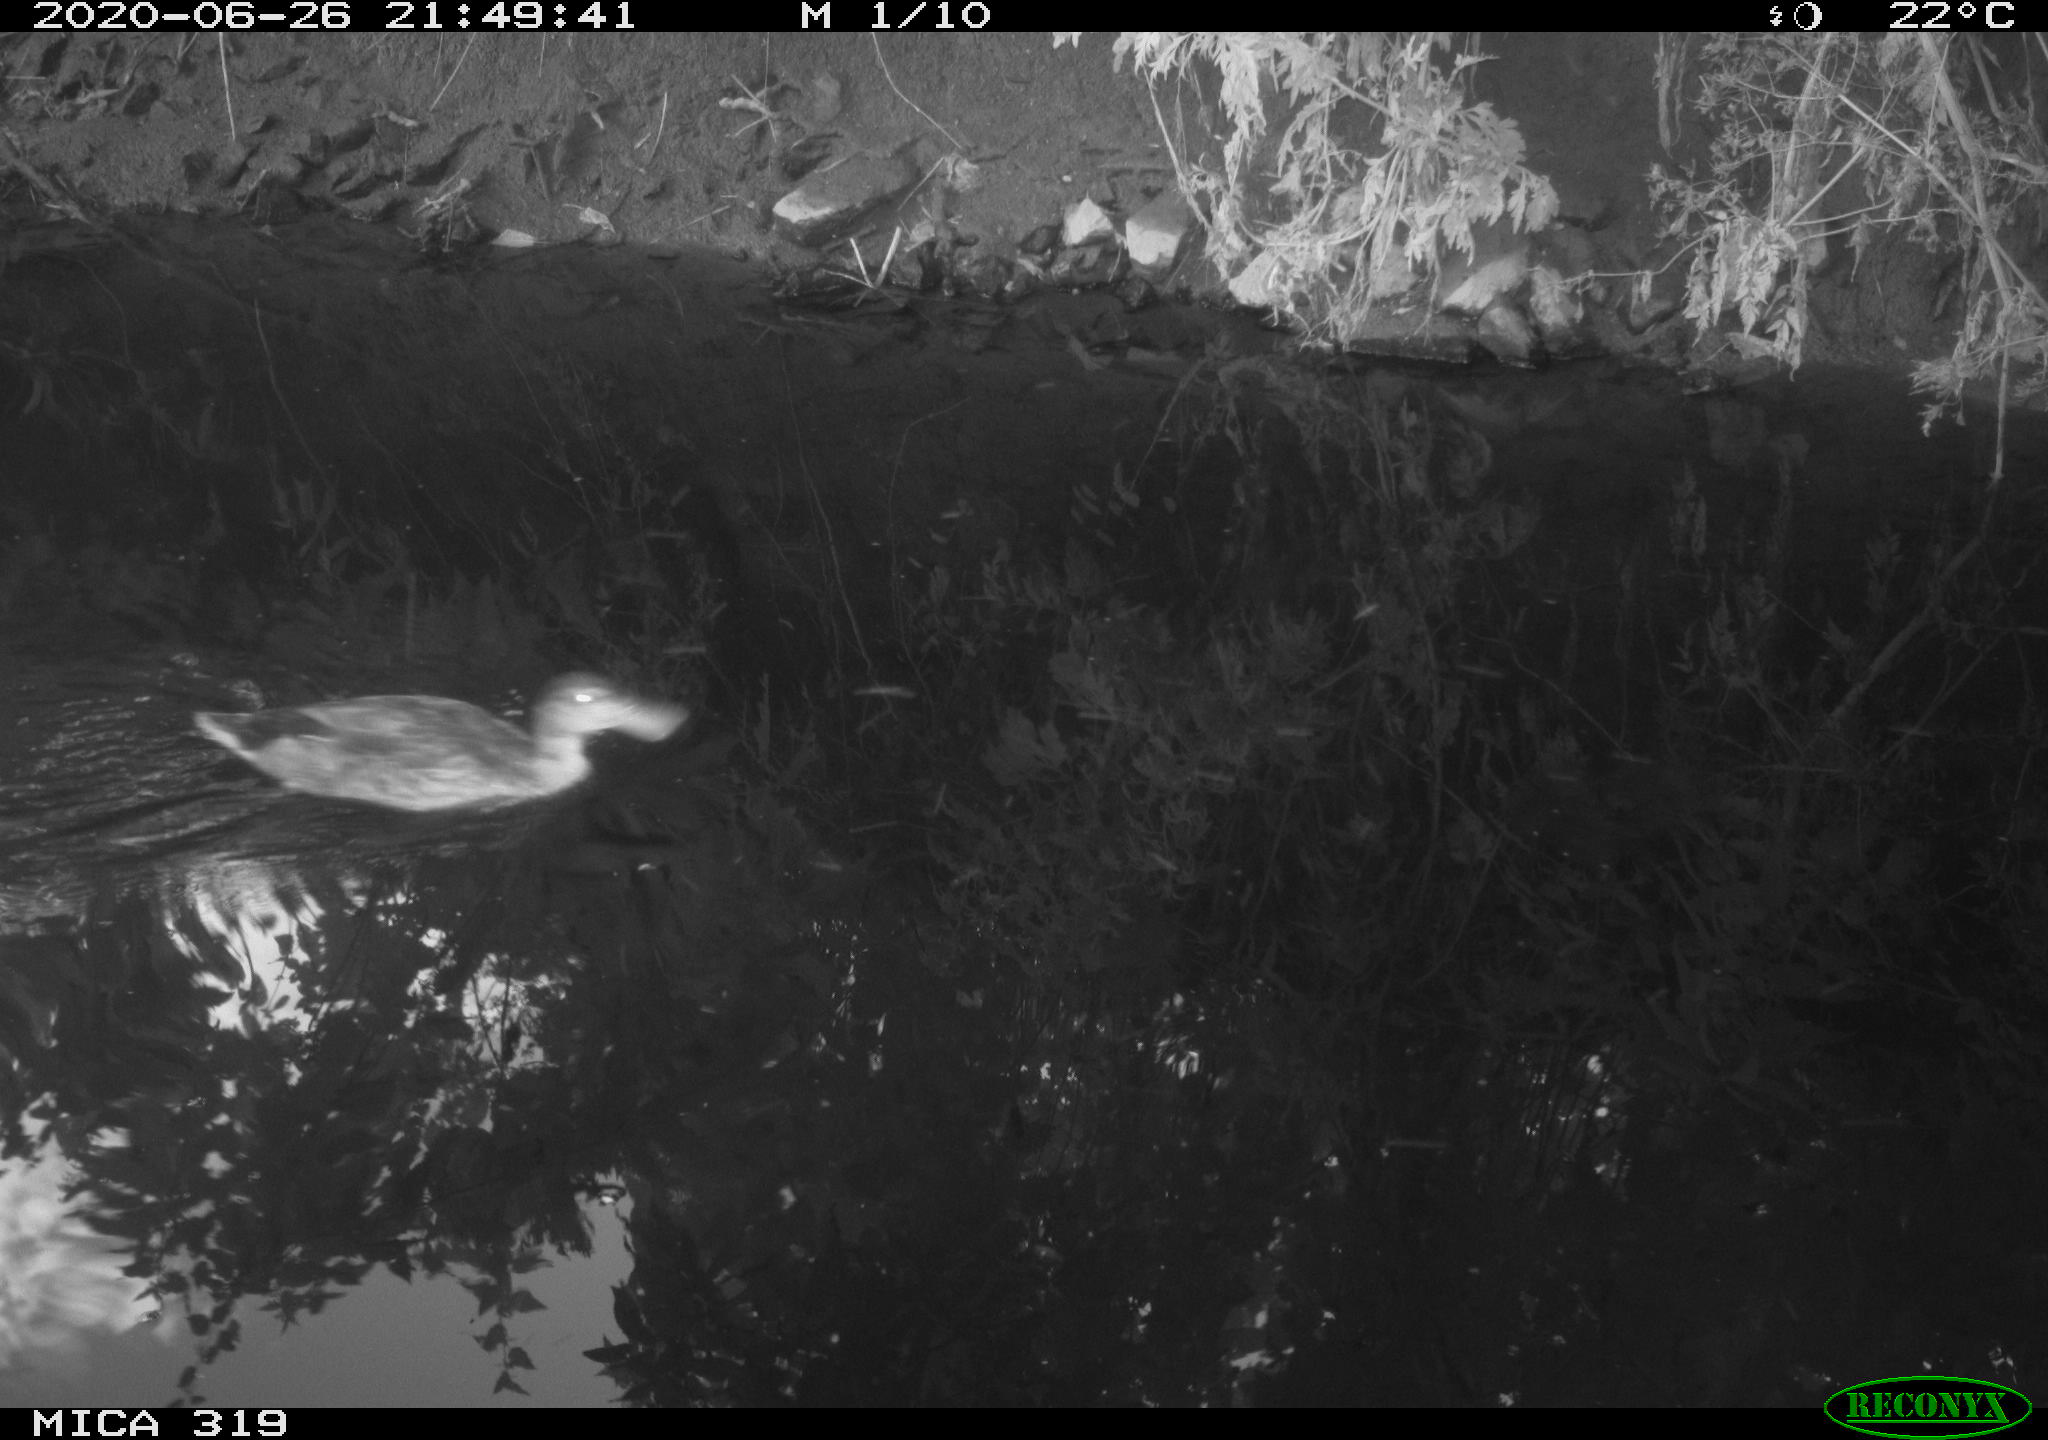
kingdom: Animalia
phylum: Chordata
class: Aves
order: Anseriformes
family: Anatidae
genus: Anas
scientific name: Anas platyrhynchos
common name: Mallard
